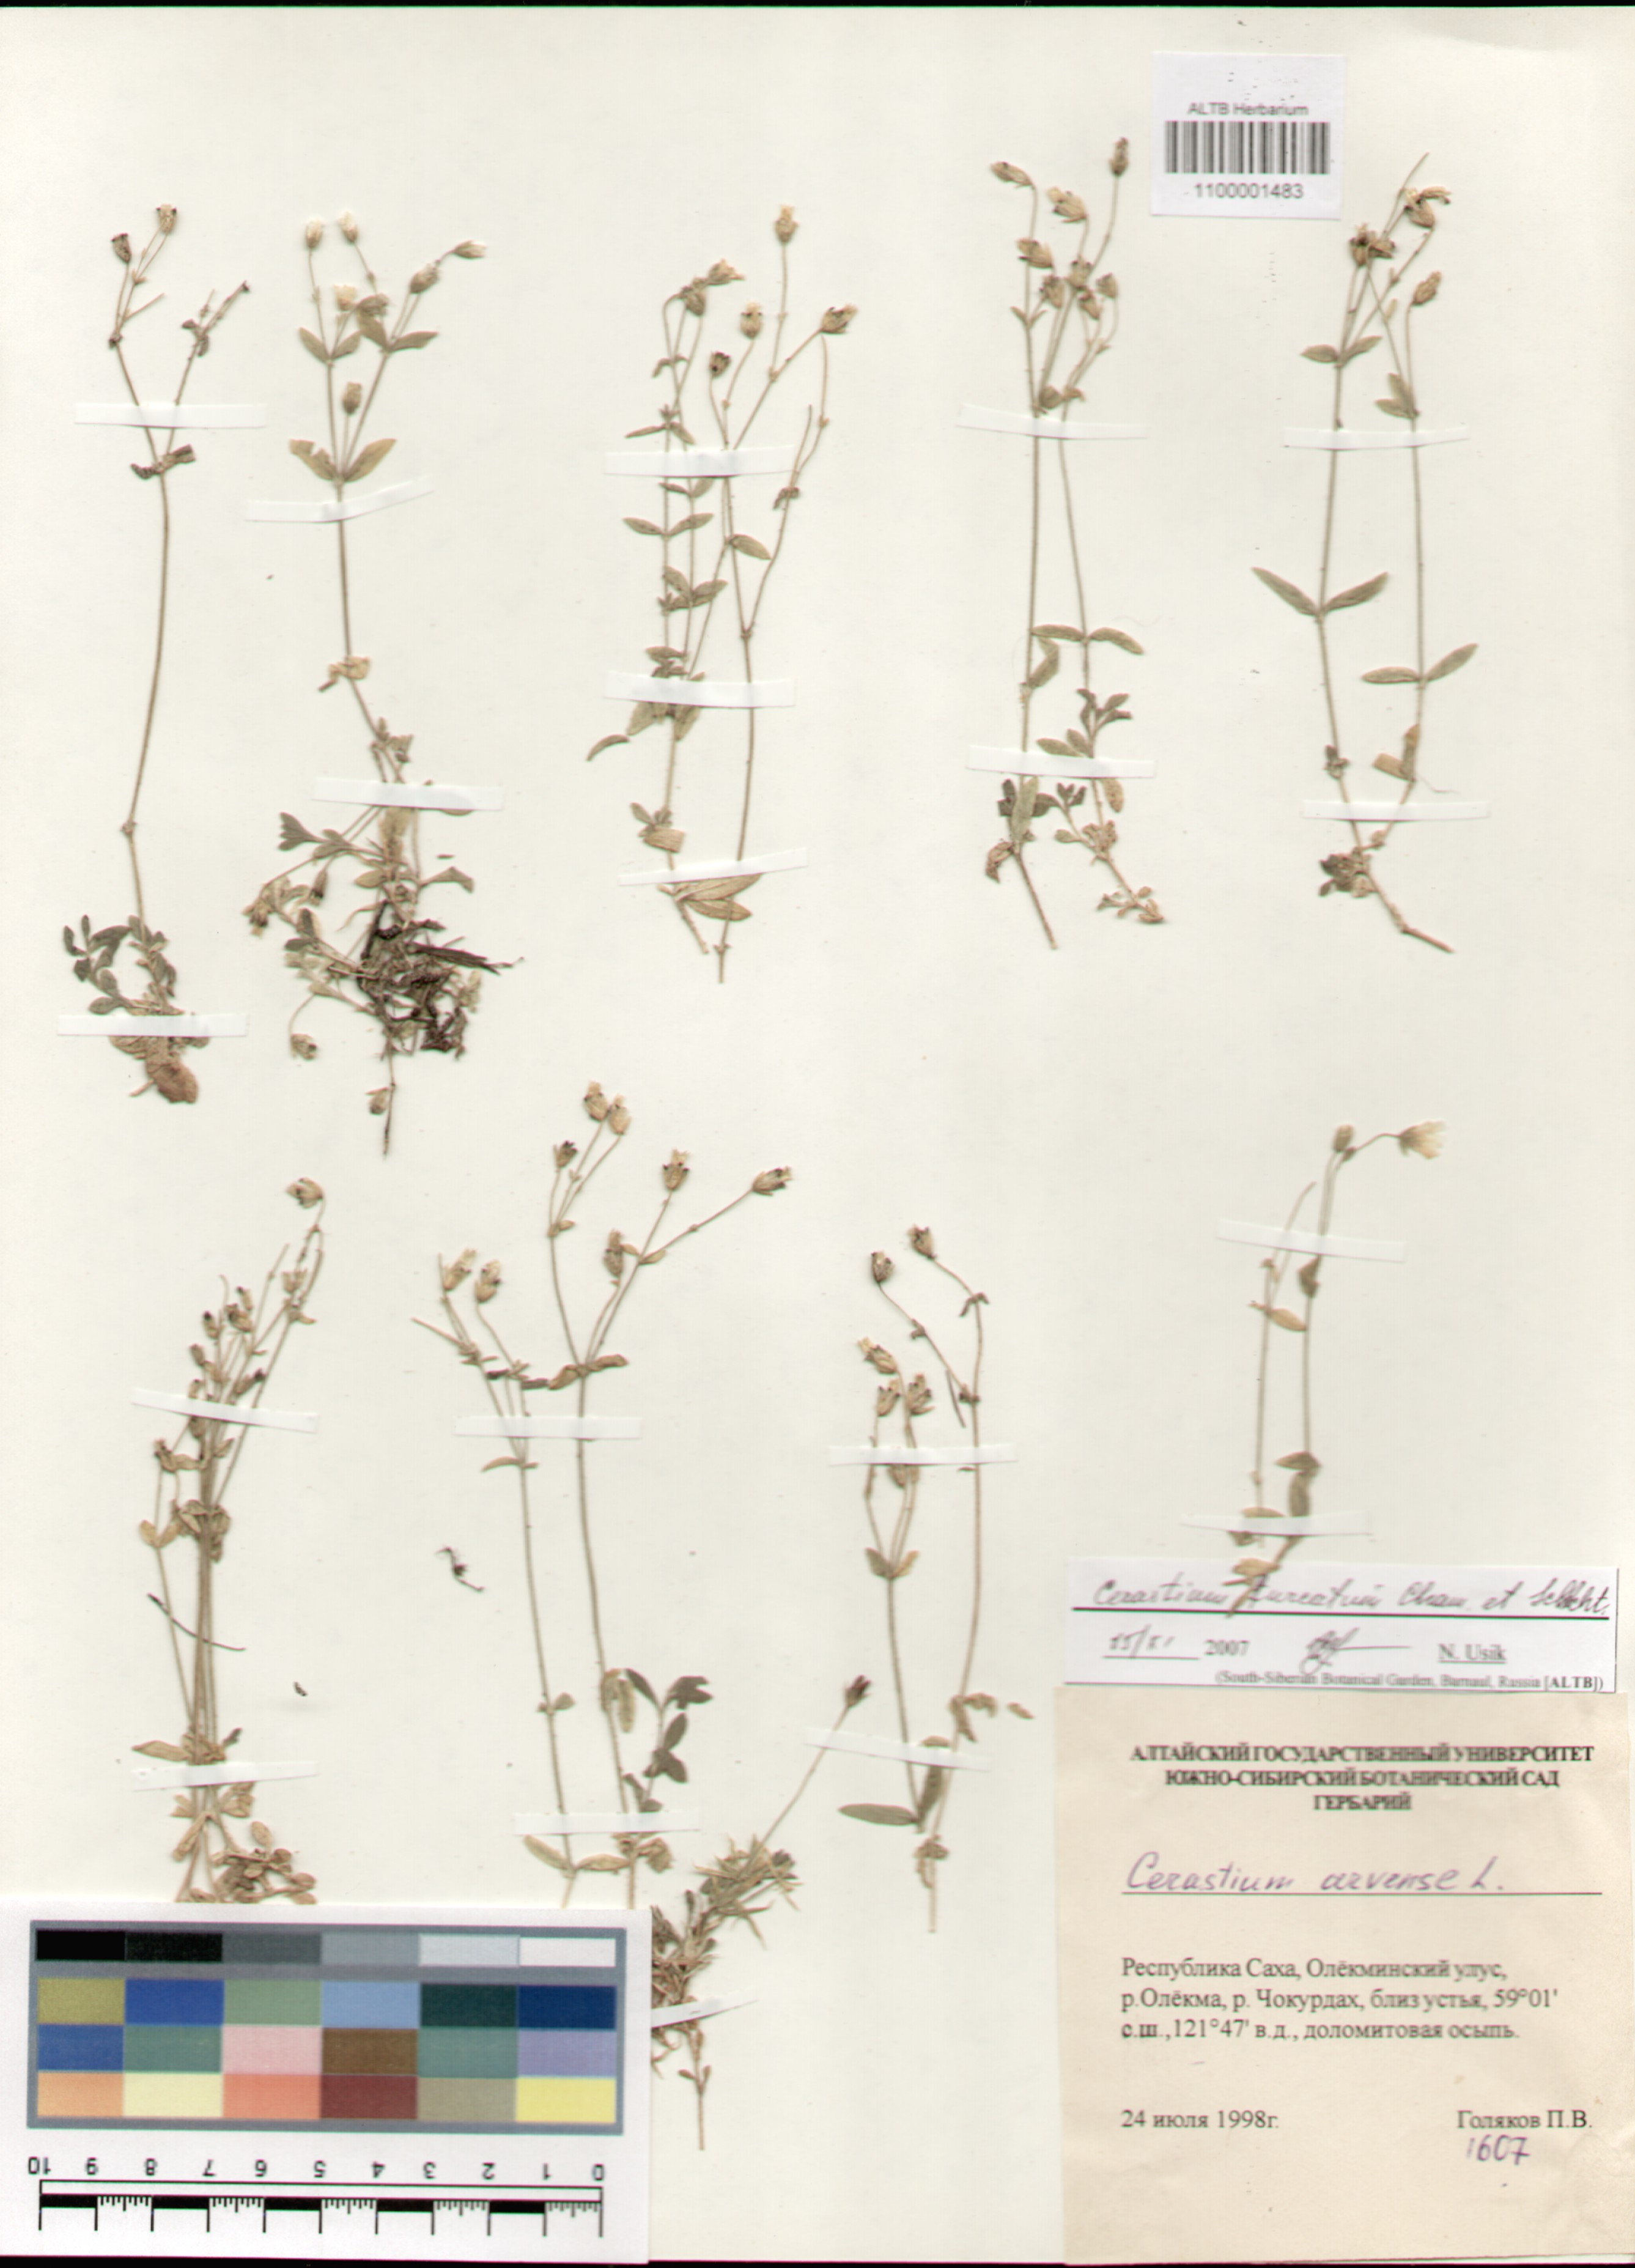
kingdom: Plantae
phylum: Tracheophyta
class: Magnoliopsida
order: Caryophyllales
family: Caryophyllaceae
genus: Cerastium
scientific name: Cerastium furcatum
